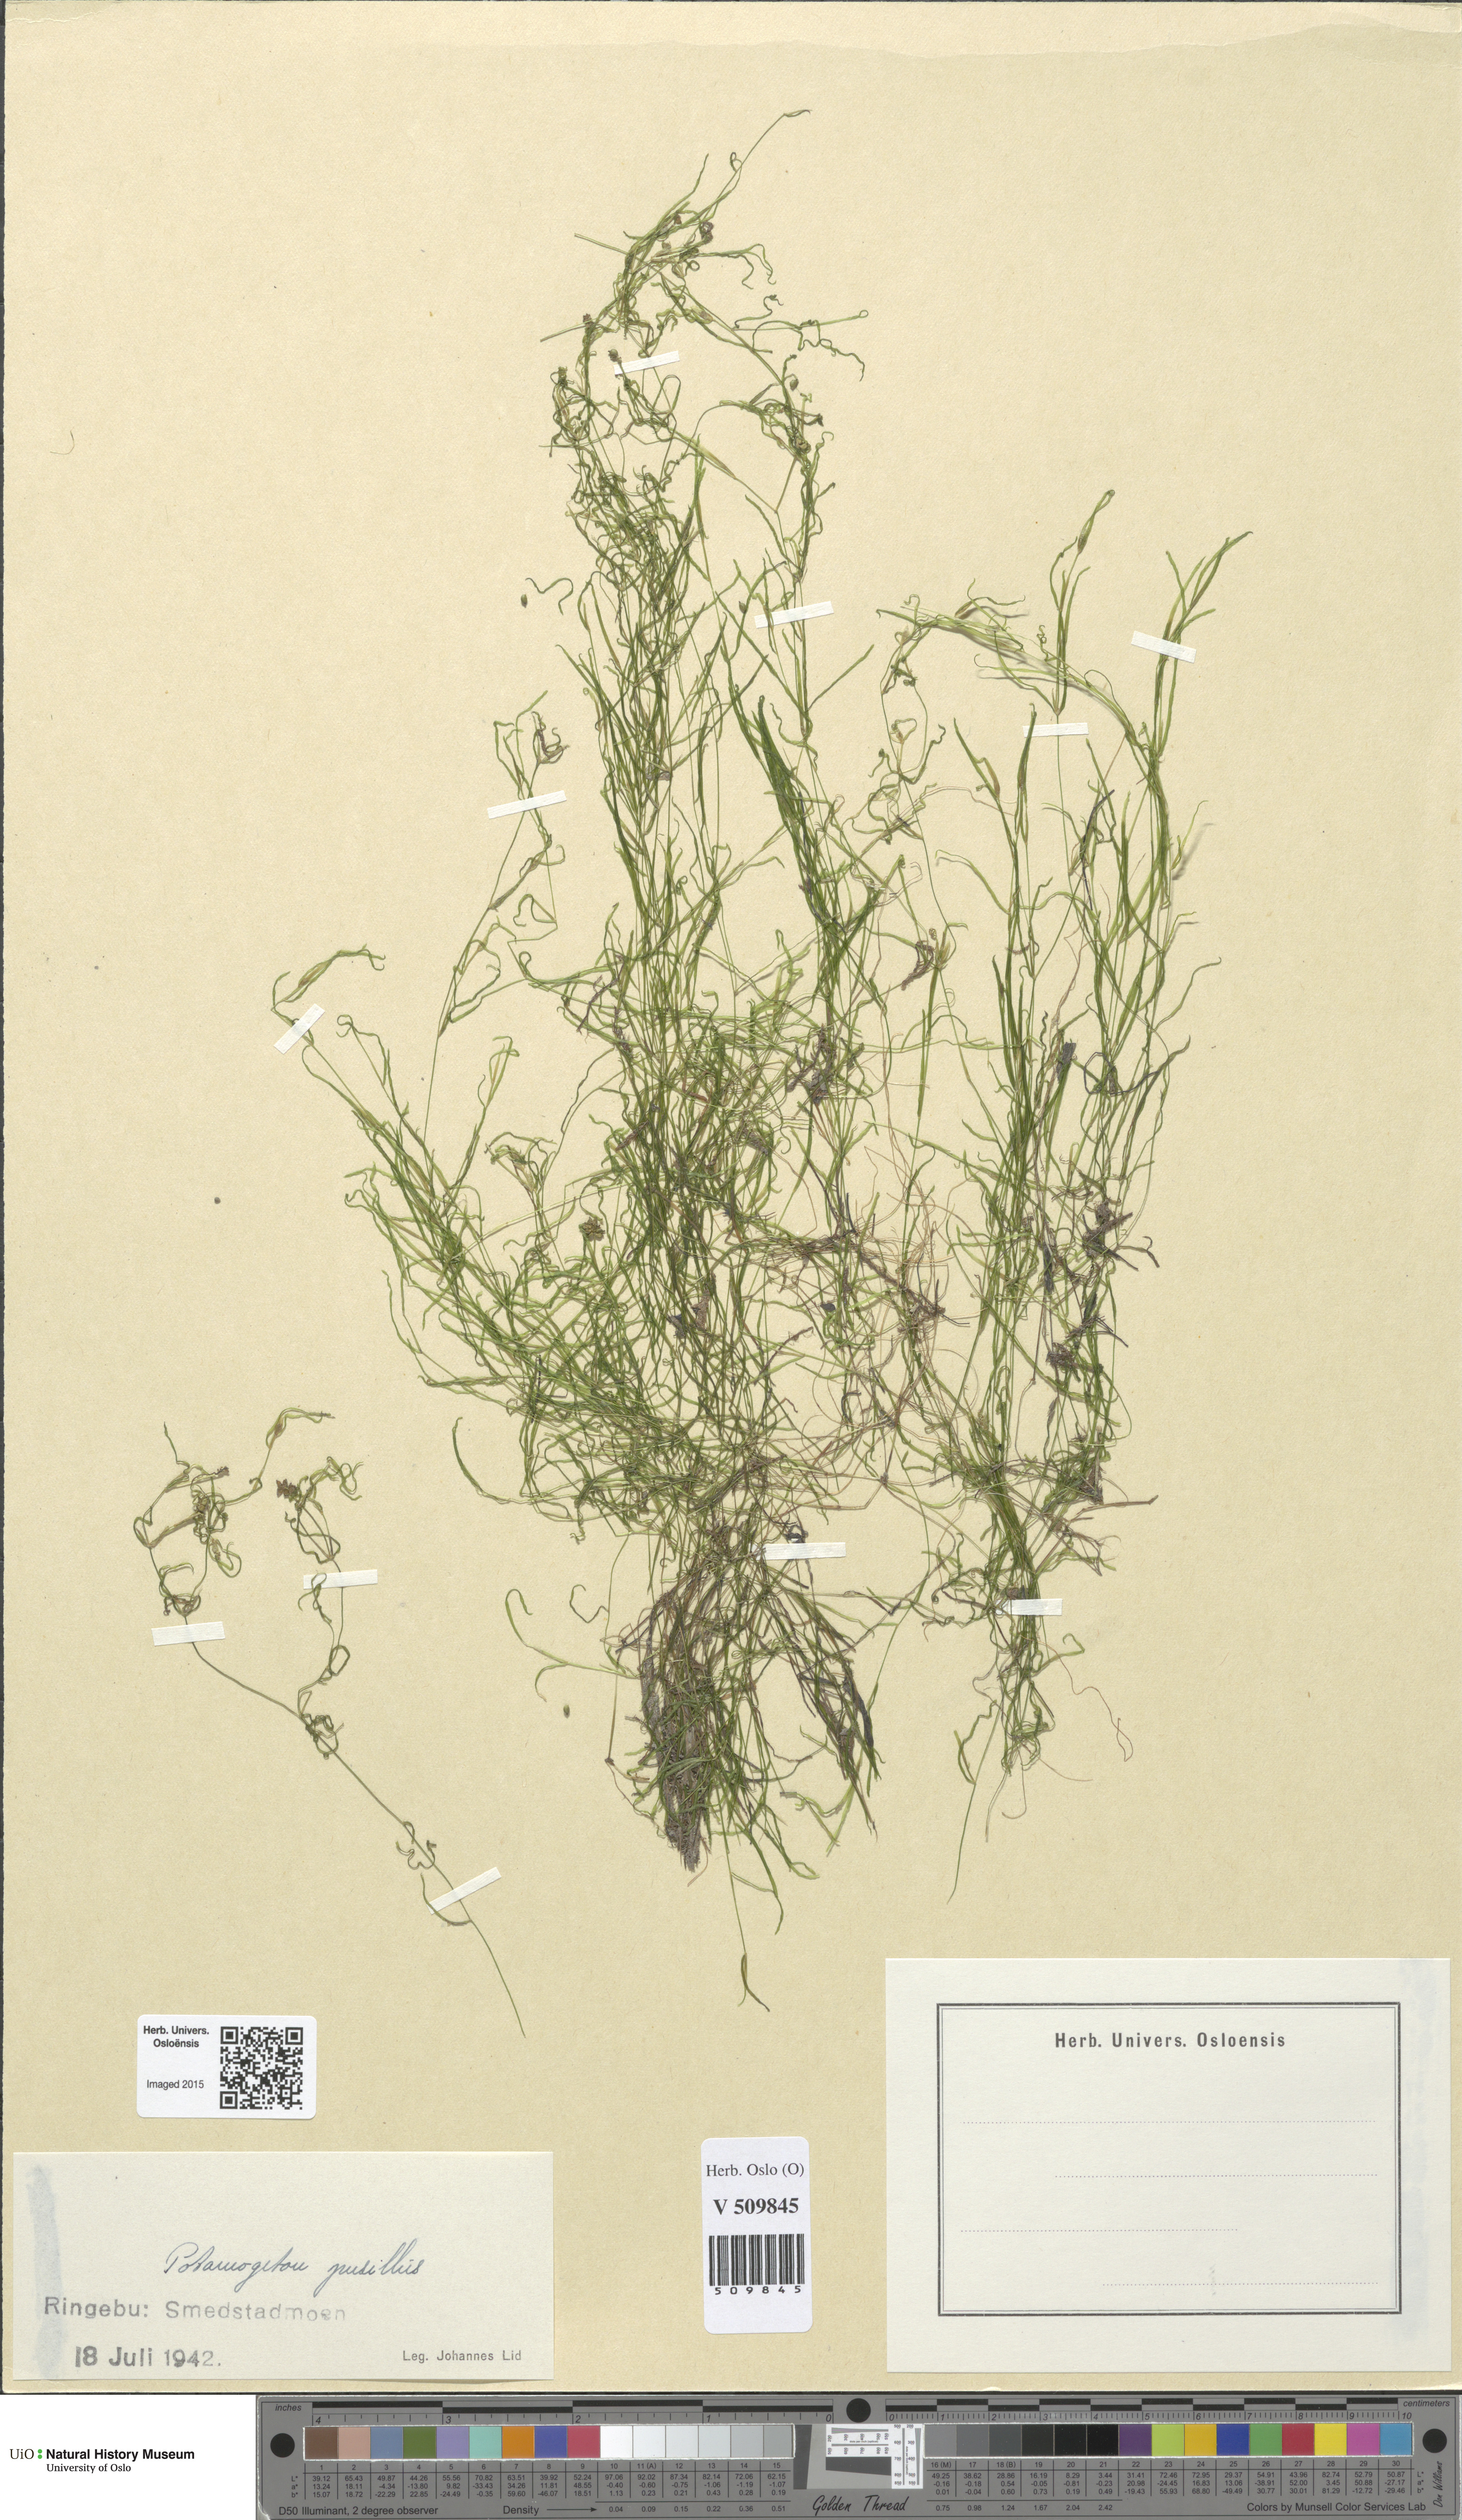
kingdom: Plantae
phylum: Tracheophyta
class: Liliopsida
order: Alismatales
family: Potamogetonaceae
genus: Potamogeton
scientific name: Potamogeton berchtoldii
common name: Small pondweed
